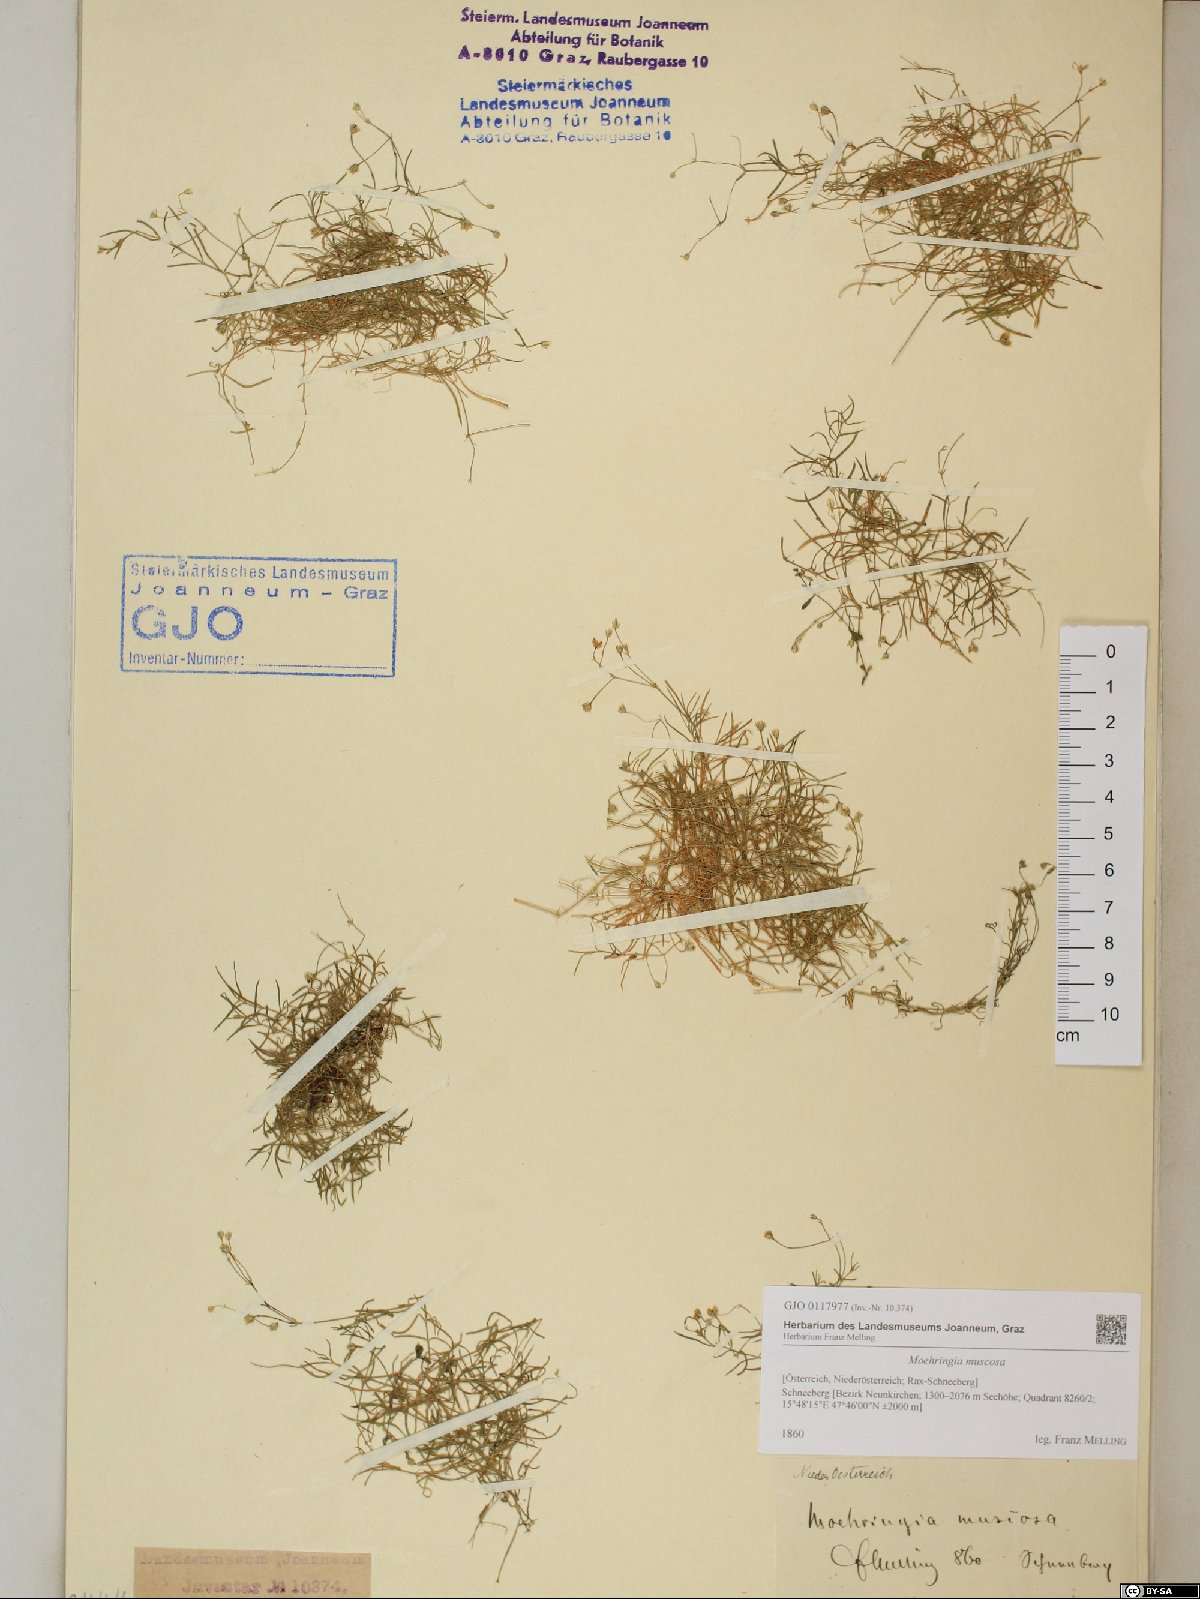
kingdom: Plantae
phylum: Tracheophyta
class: Magnoliopsida
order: Caryophyllales
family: Caryophyllaceae
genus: Moehringia
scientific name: Moehringia muscosa
